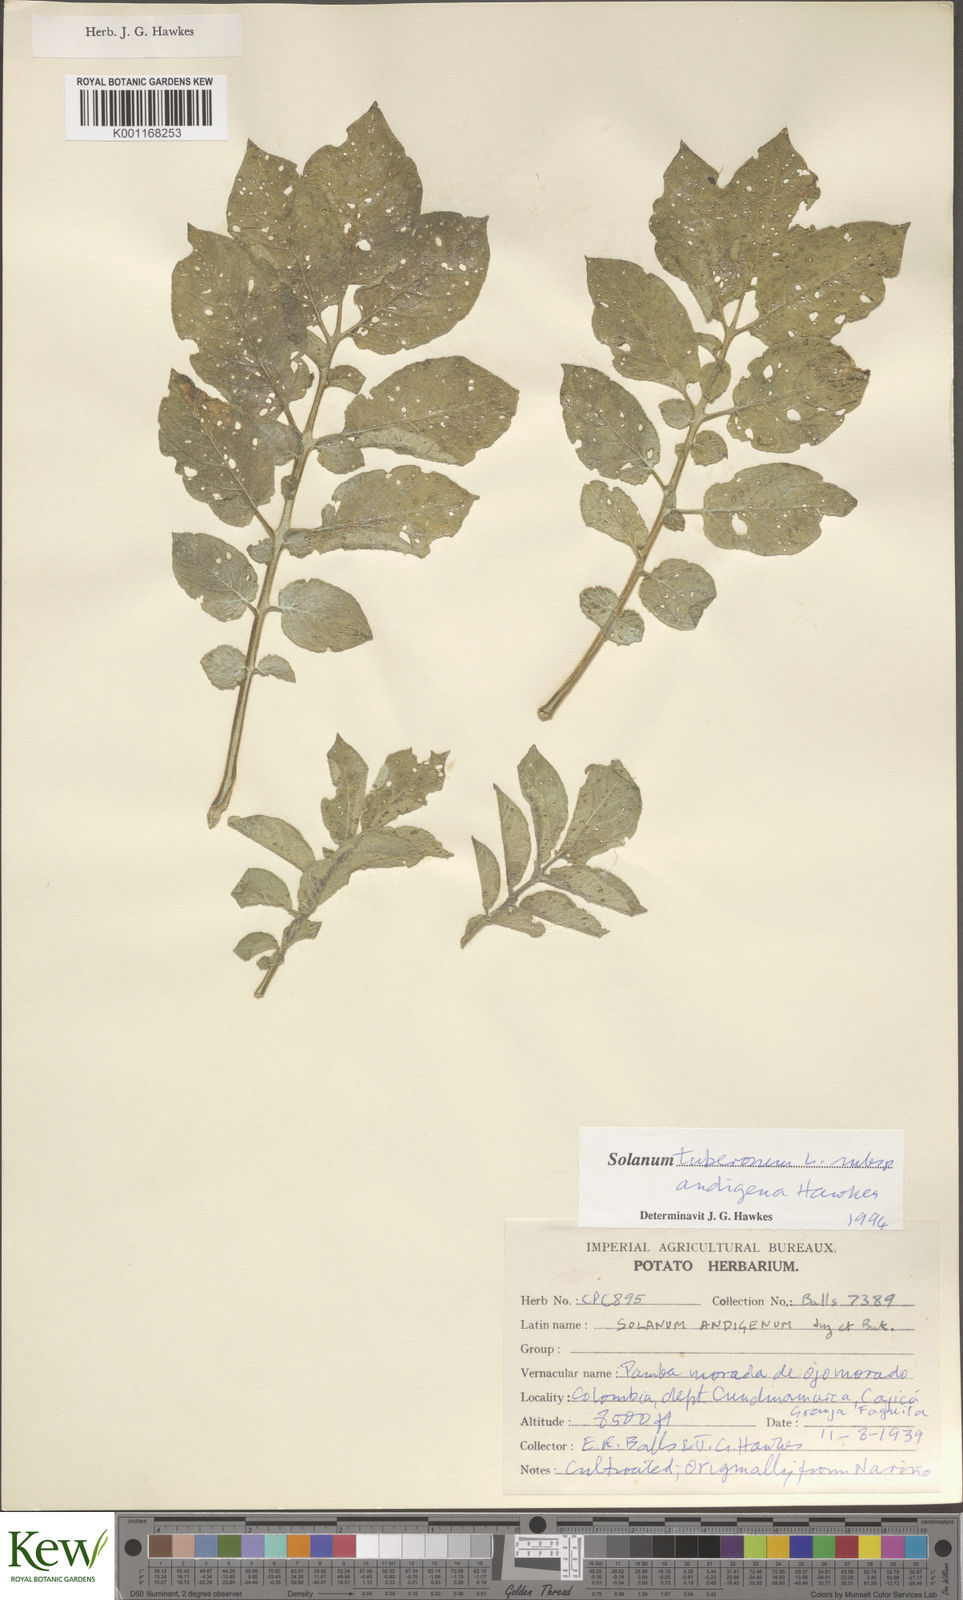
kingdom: Plantae
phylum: Tracheophyta
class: Magnoliopsida
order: Solanales
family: Solanaceae
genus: Solanum
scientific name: Solanum tuberosum
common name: Potato
